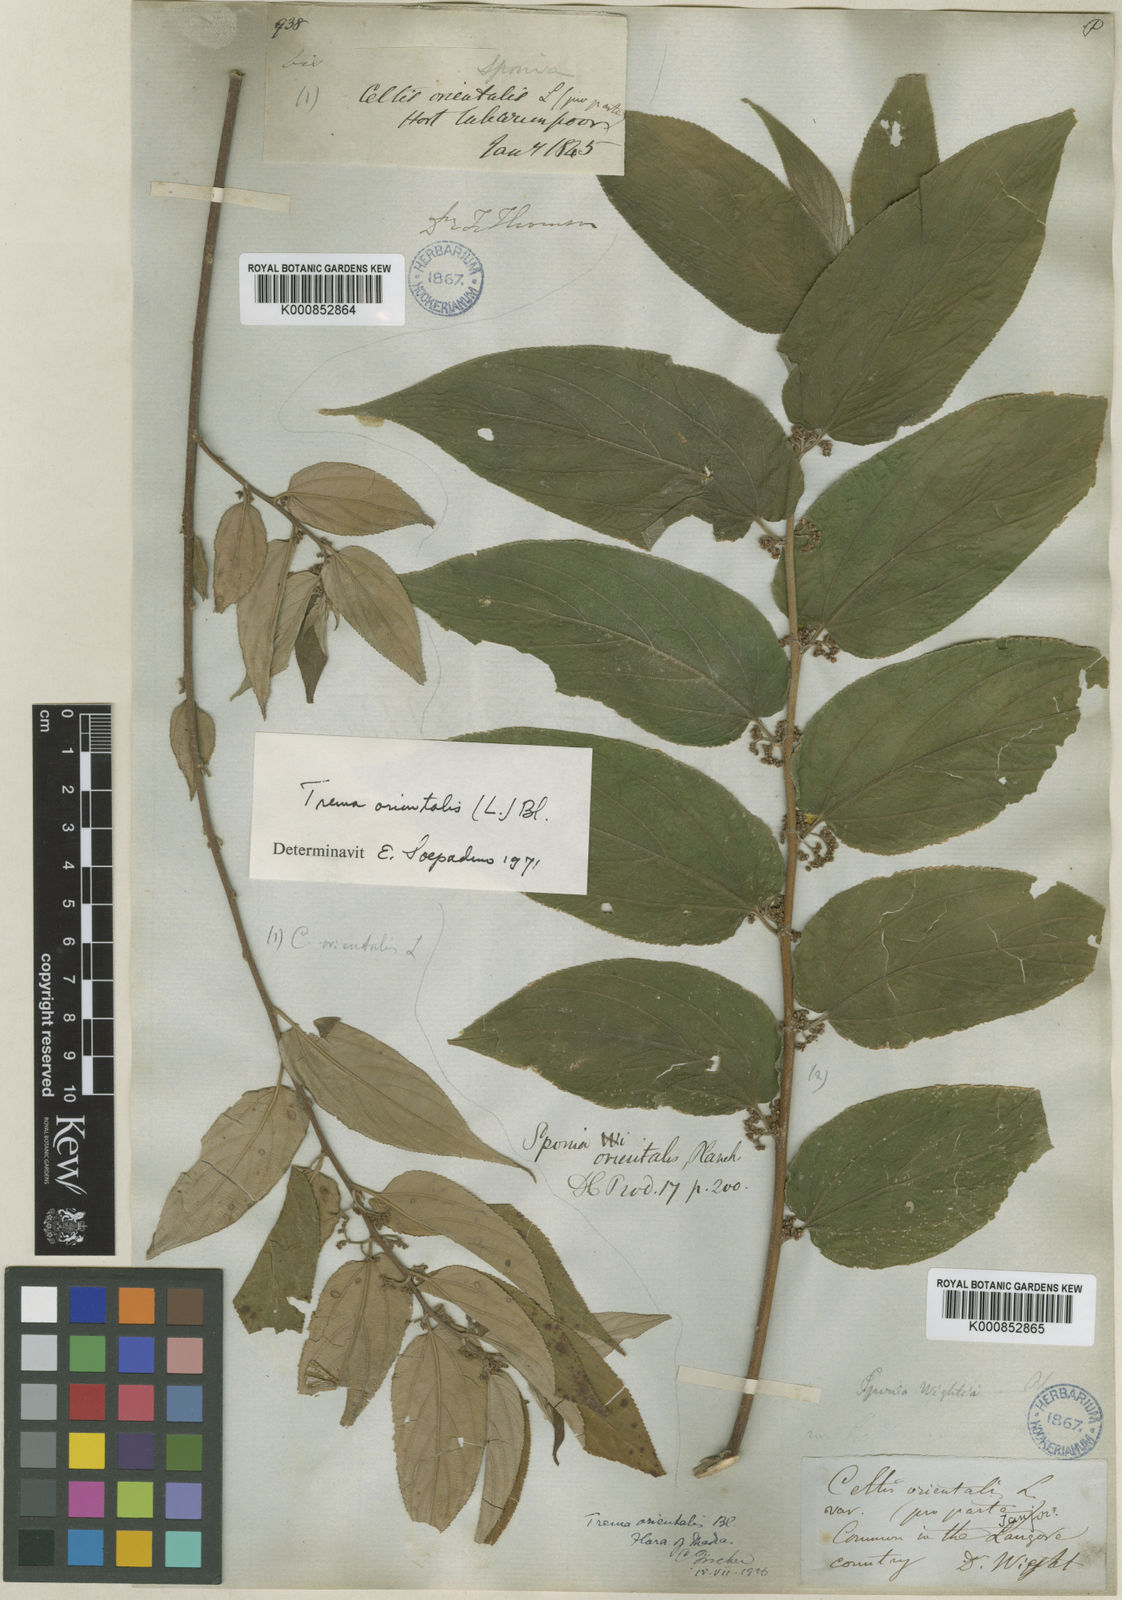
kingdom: Plantae
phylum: Tracheophyta
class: Magnoliopsida
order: Rosales
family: Cannabaceae
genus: Trema
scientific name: Trema
